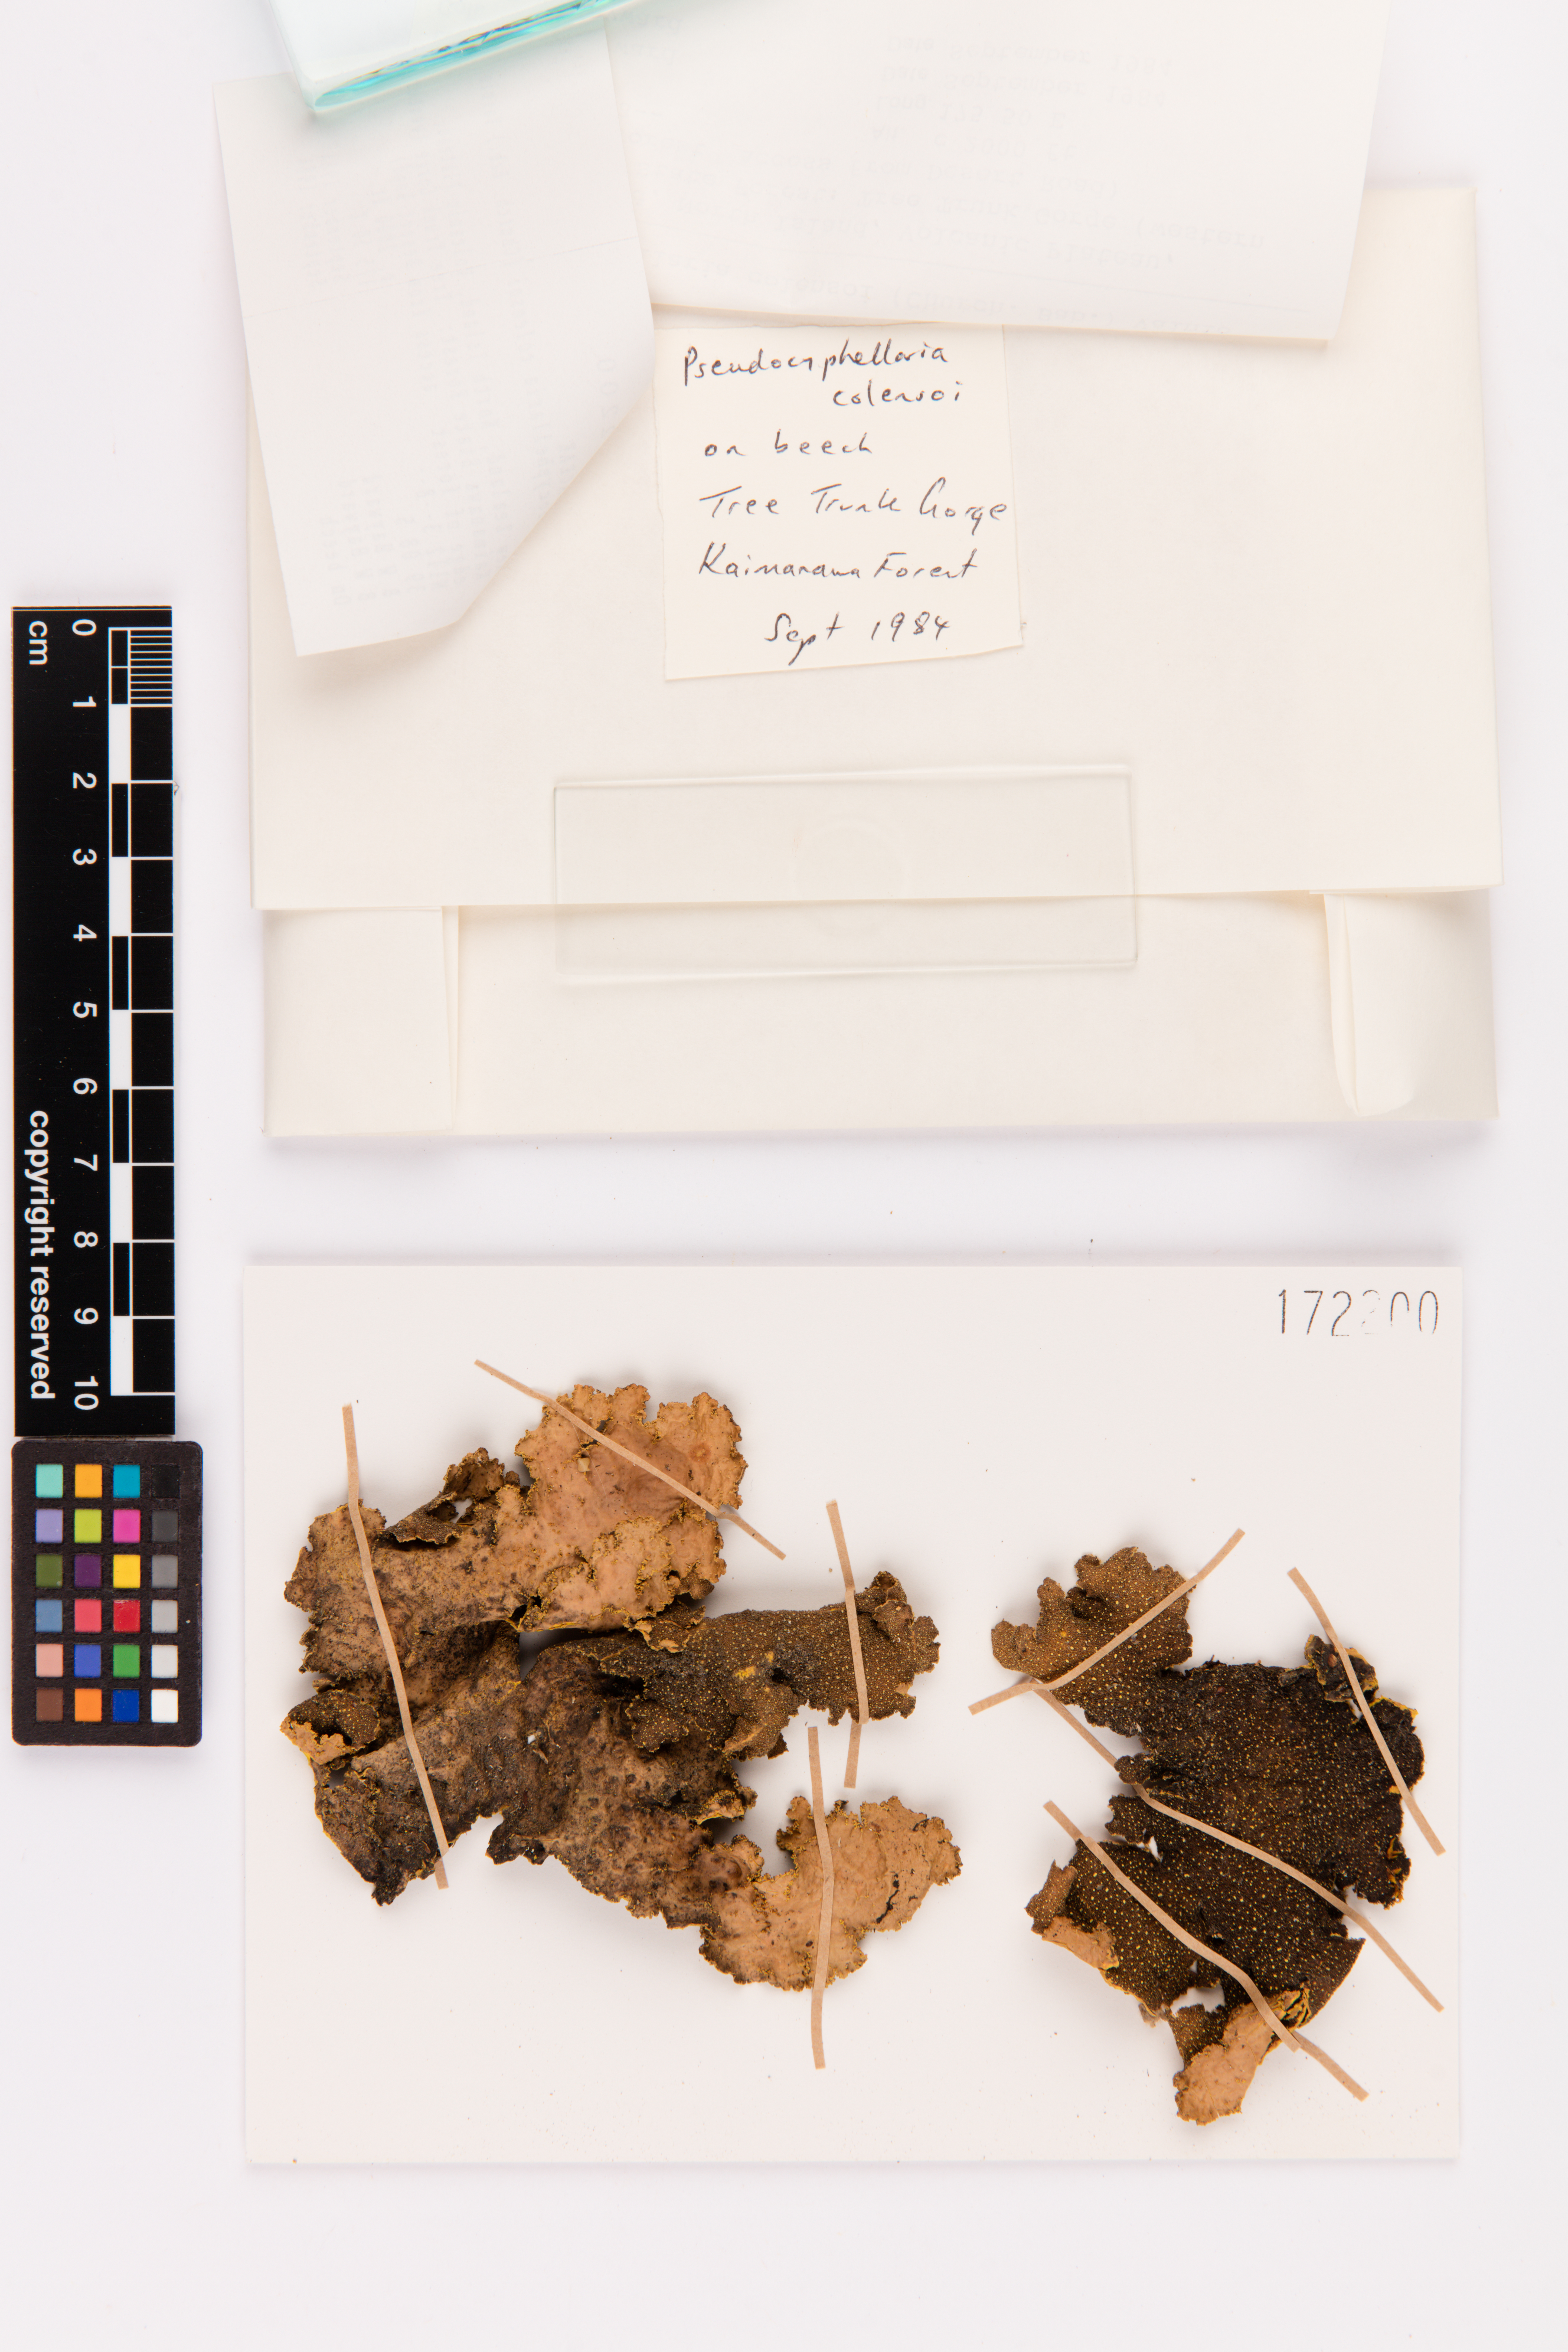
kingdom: Fungi
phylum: Ascomycota
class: Lecanoromycetes
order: Peltigerales
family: Lobariaceae
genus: Yarrumia
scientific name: Yarrumia colensoi
